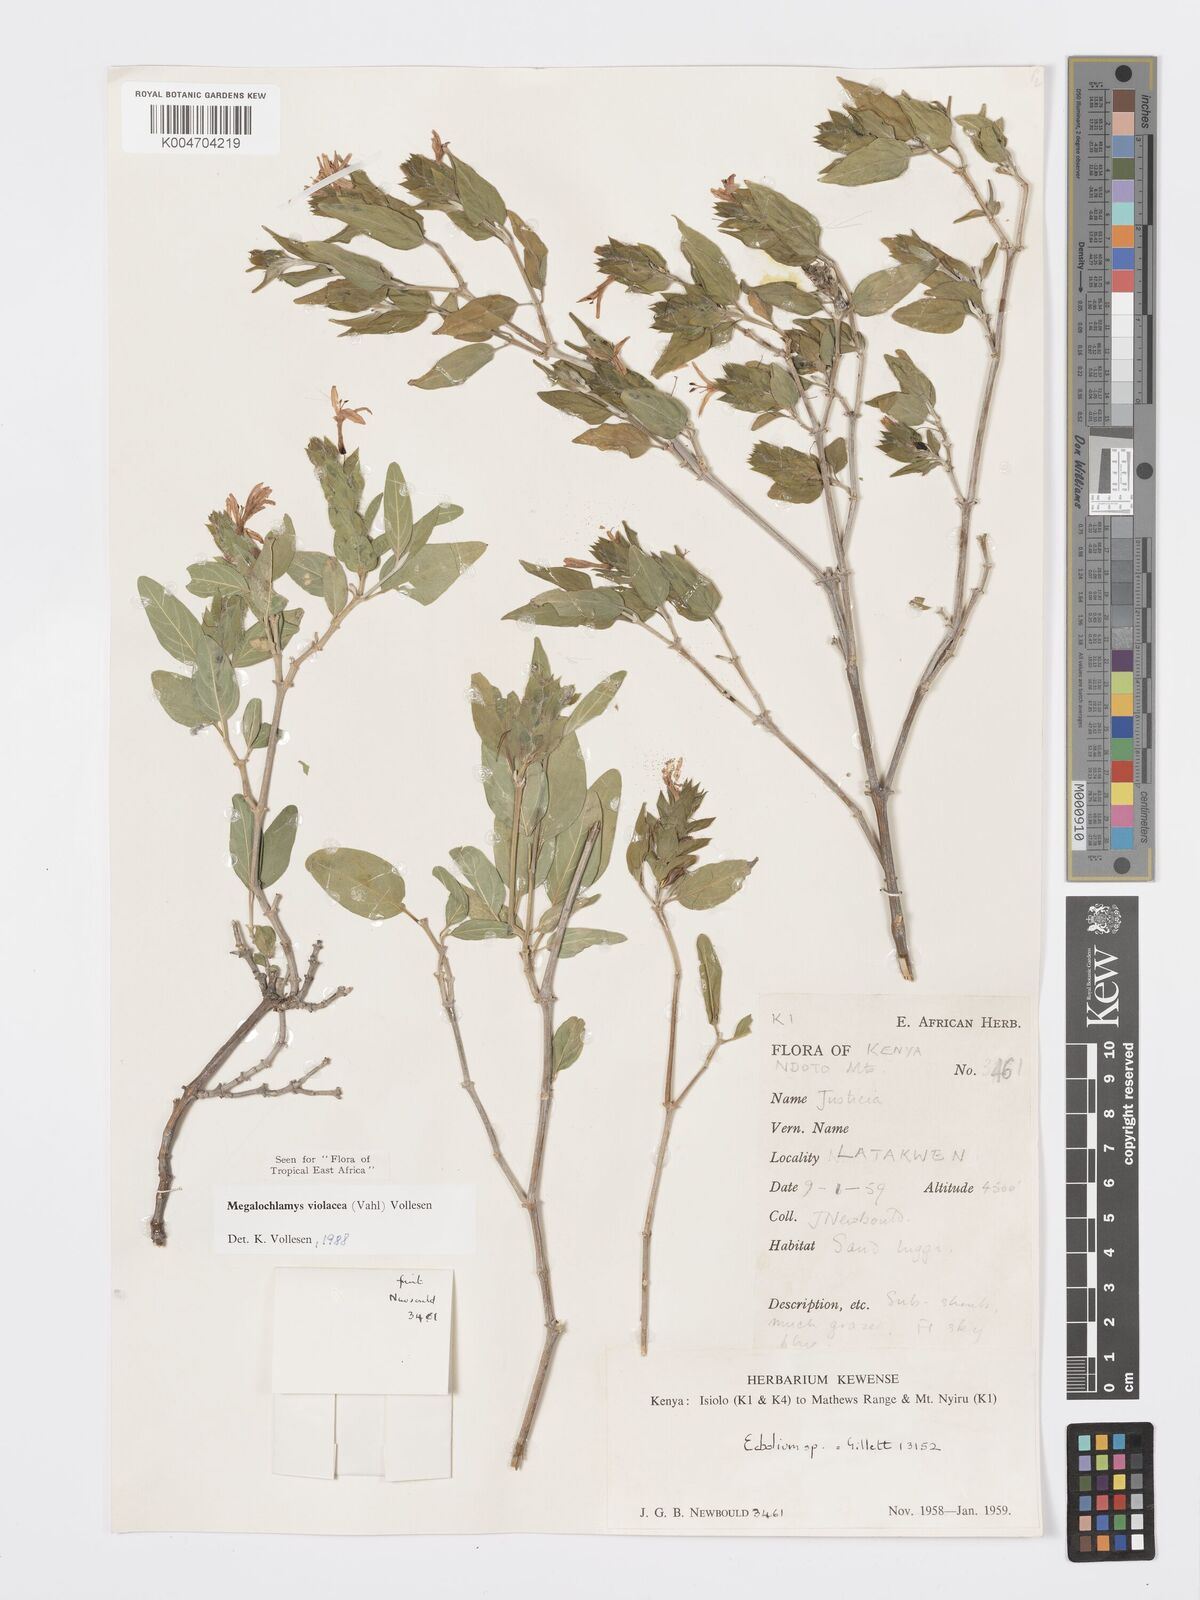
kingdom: Plantae
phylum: Tracheophyta
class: Magnoliopsida
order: Lamiales
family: Acanthaceae
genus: Megalochlamys
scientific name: Megalochlamys violacea
